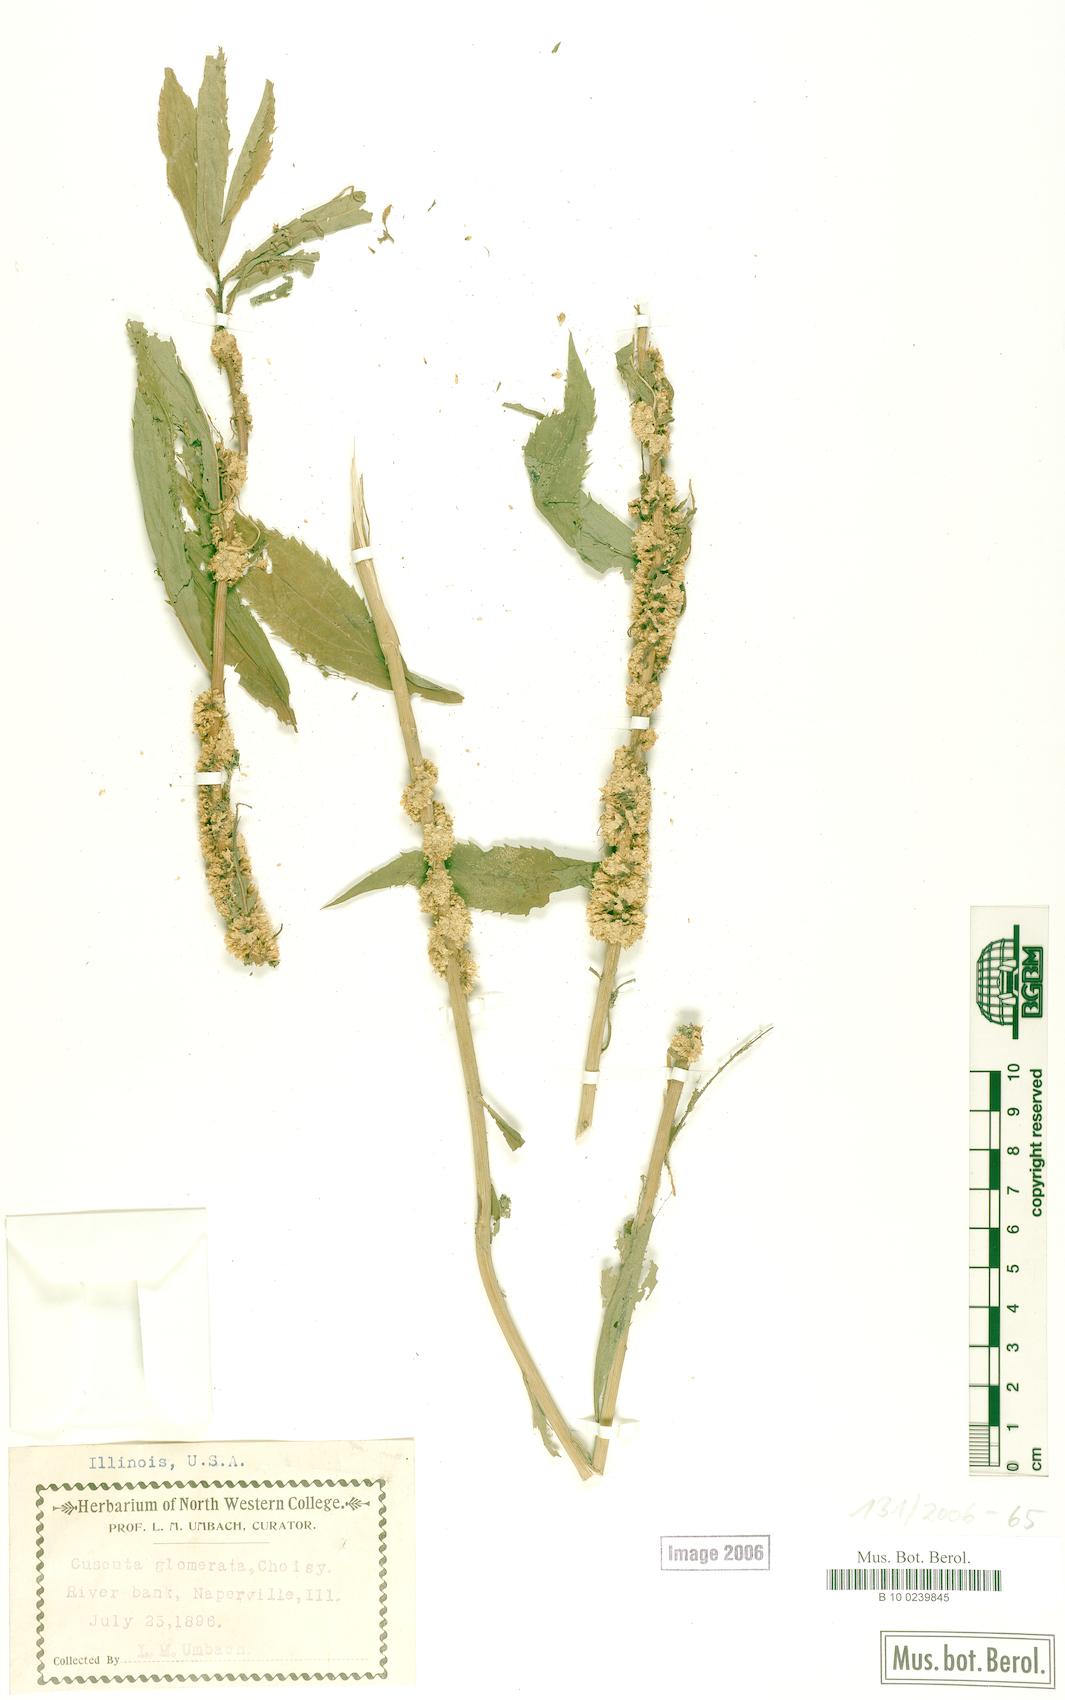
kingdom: Plantae
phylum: Tracheophyta
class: Magnoliopsida
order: Solanales
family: Convolvulaceae
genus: Cuscuta
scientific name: Cuscuta glomerata
